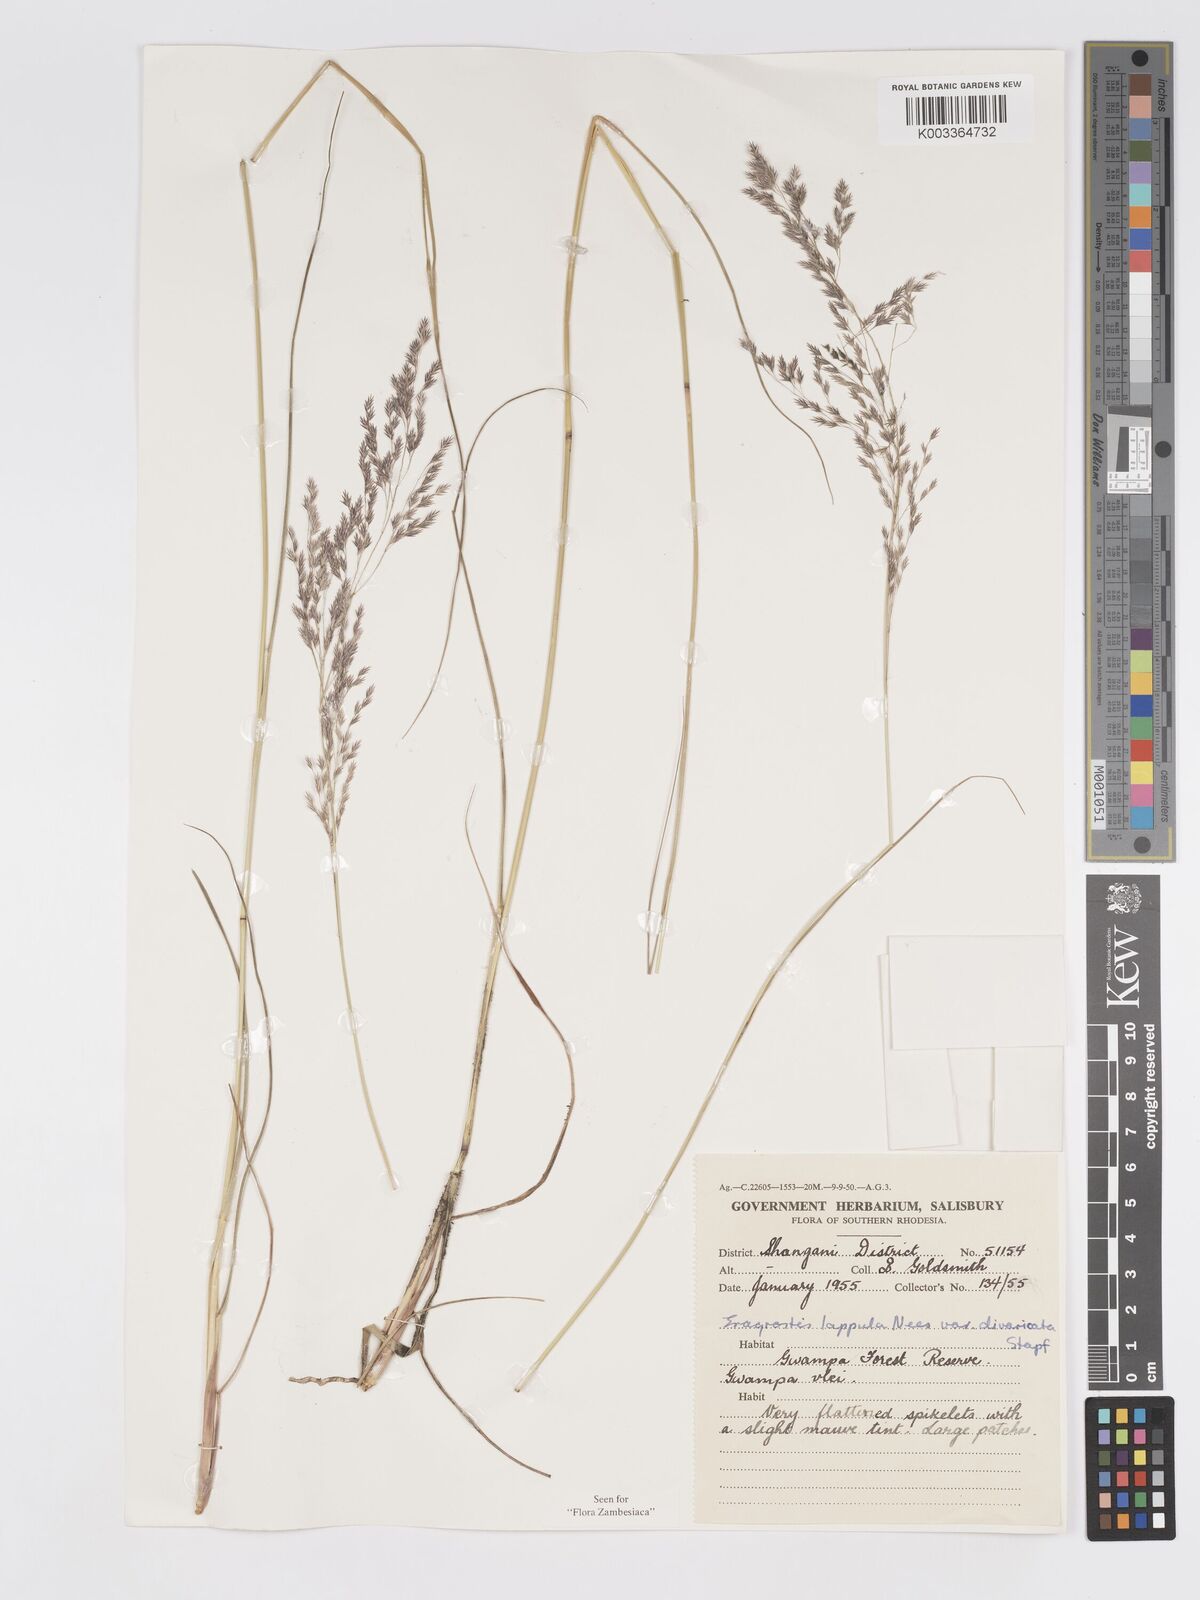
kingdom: Plantae
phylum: Tracheophyta
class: Liliopsida
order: Poales
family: Poaceae
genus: Eragrostis
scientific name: Eragrostis lappula
